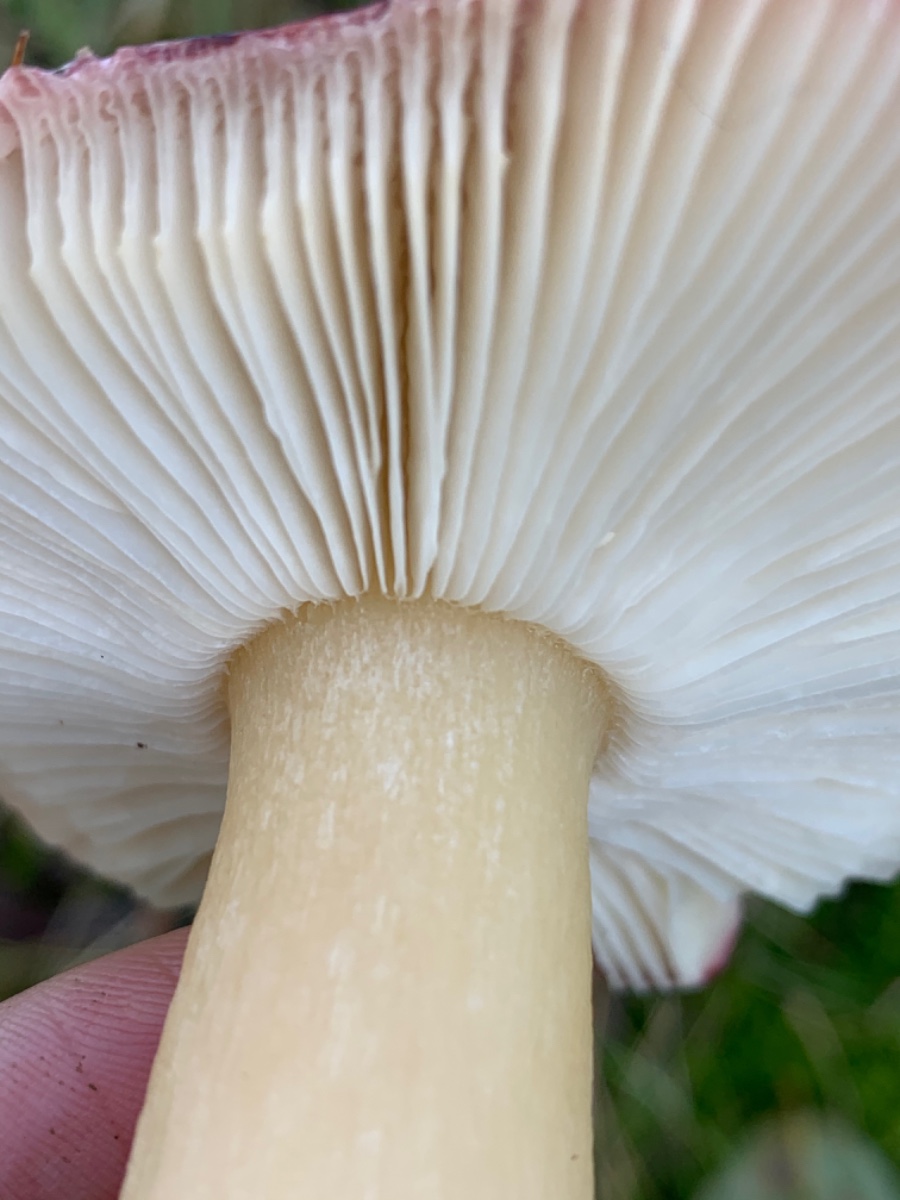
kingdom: Fungi
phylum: Basidiomycota
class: Agaricomycetes
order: Russulales
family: Russulaceae
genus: Russula
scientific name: Russula
